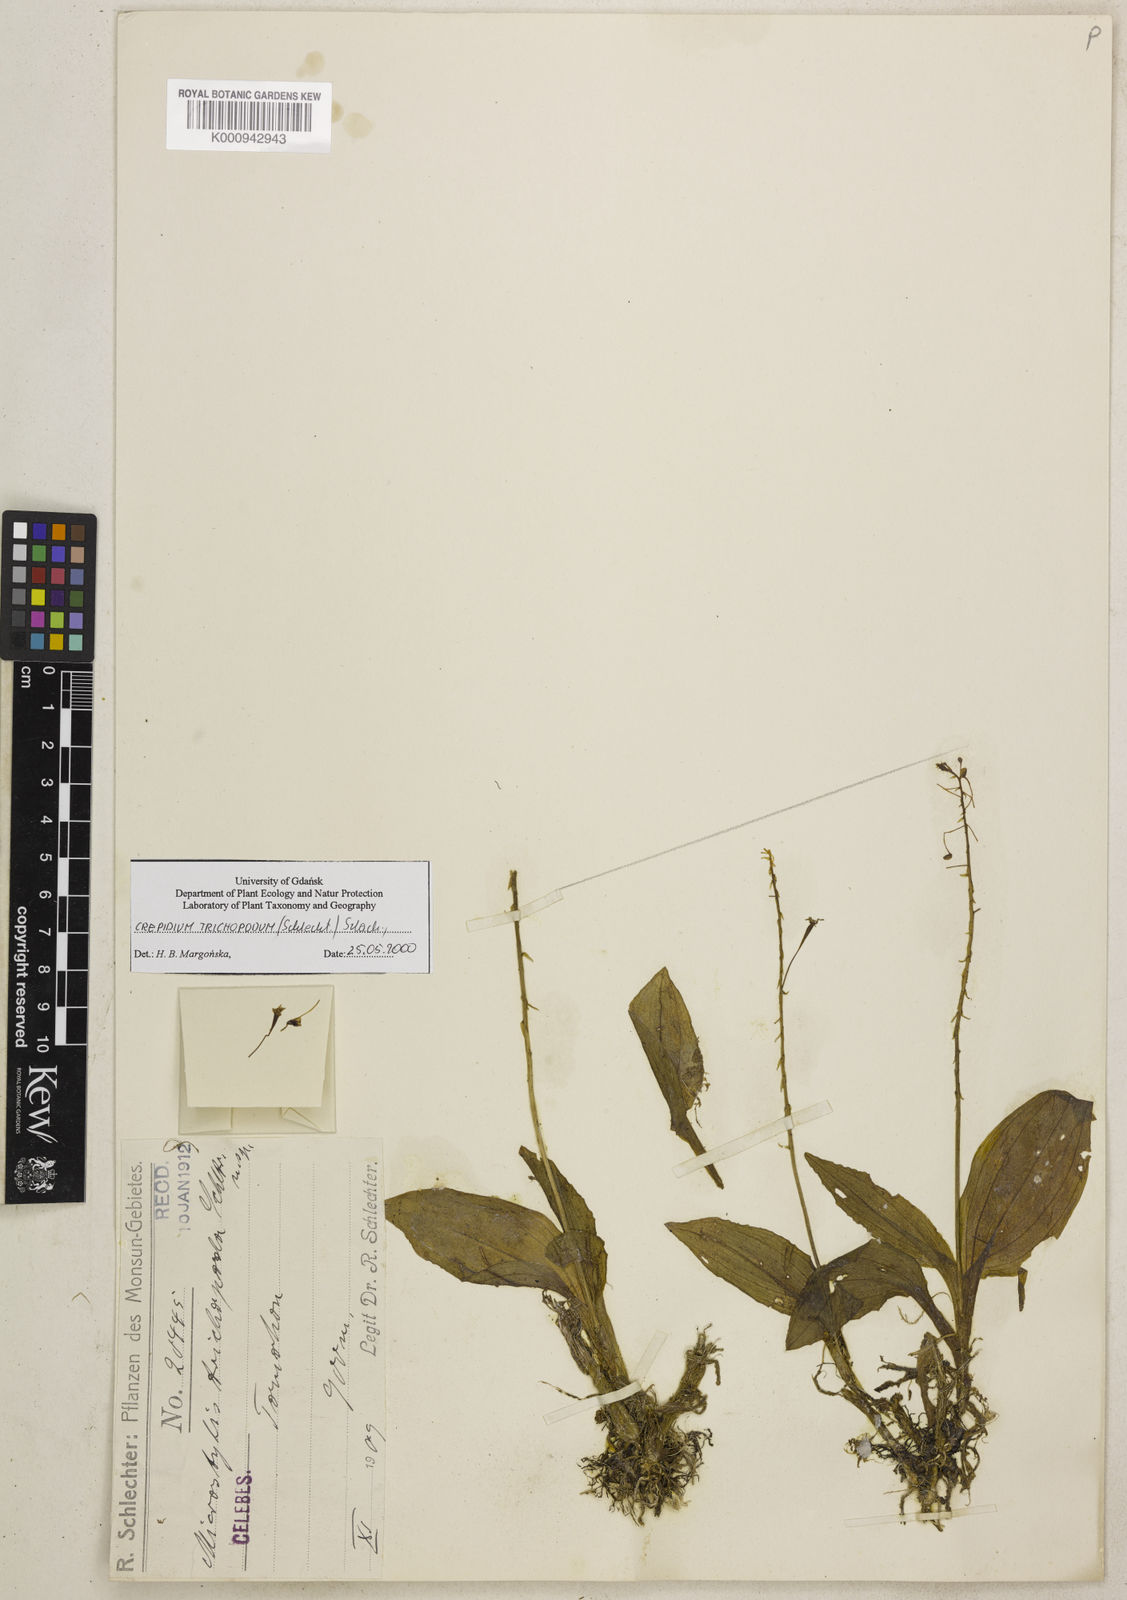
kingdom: Plantae
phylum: Tracheophyta
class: Liliopsida
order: Asparagales
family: Orchidaceae
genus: Crepidium
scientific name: Crepidium trichopodum
